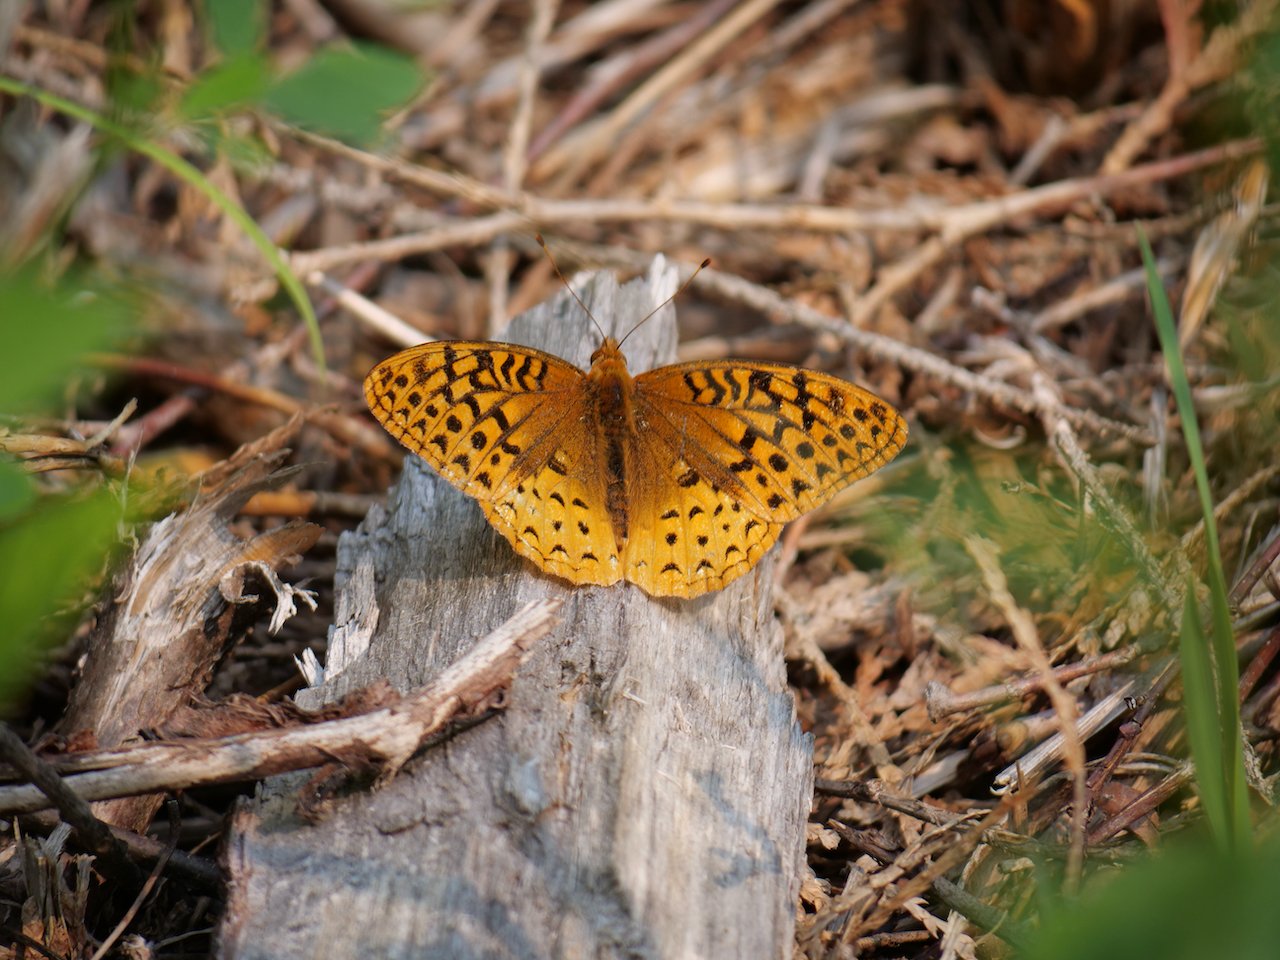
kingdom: Animalia
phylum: Arthropoda
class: Insecta
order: Lepidoptera
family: Nymphalidae
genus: Speyeria
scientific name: Speyeria cybele
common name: Great Spangled Fritillary
